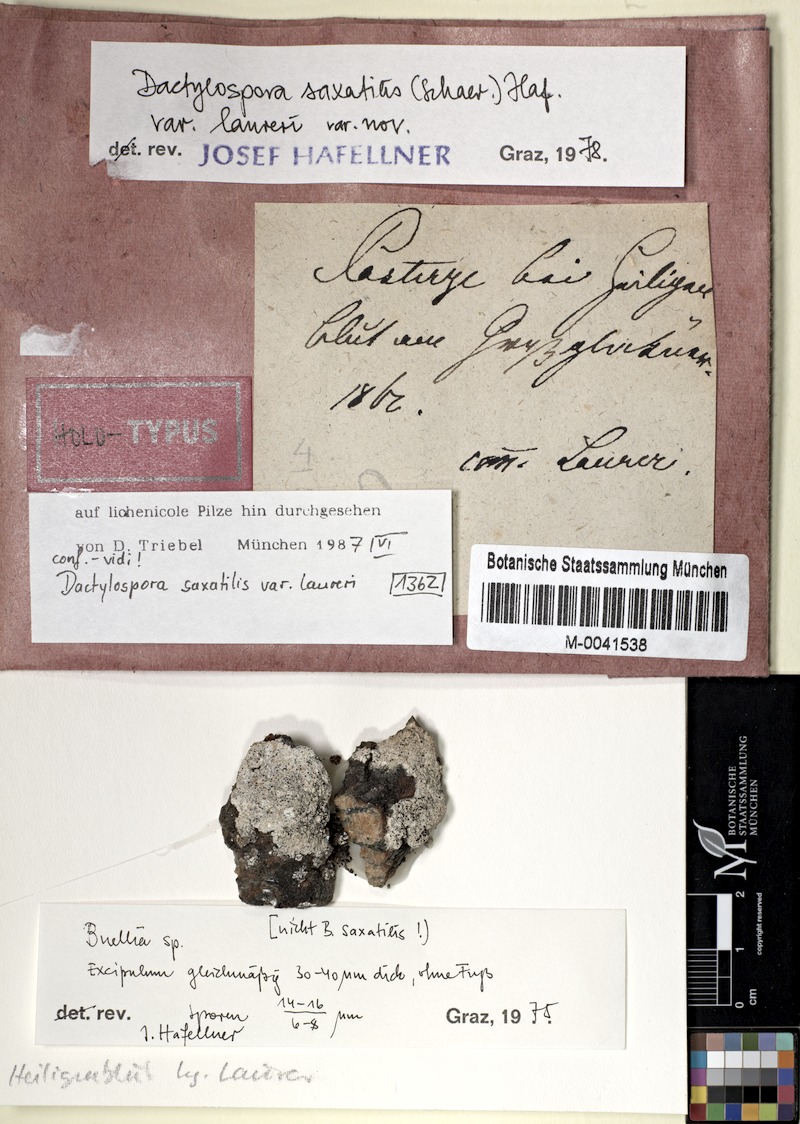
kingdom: Fungi
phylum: Ascomycota
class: Eurotiomycetes
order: Sclerococcales
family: Sclerococcaceae
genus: Sclerococcum
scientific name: Sclerococcum saxatile
